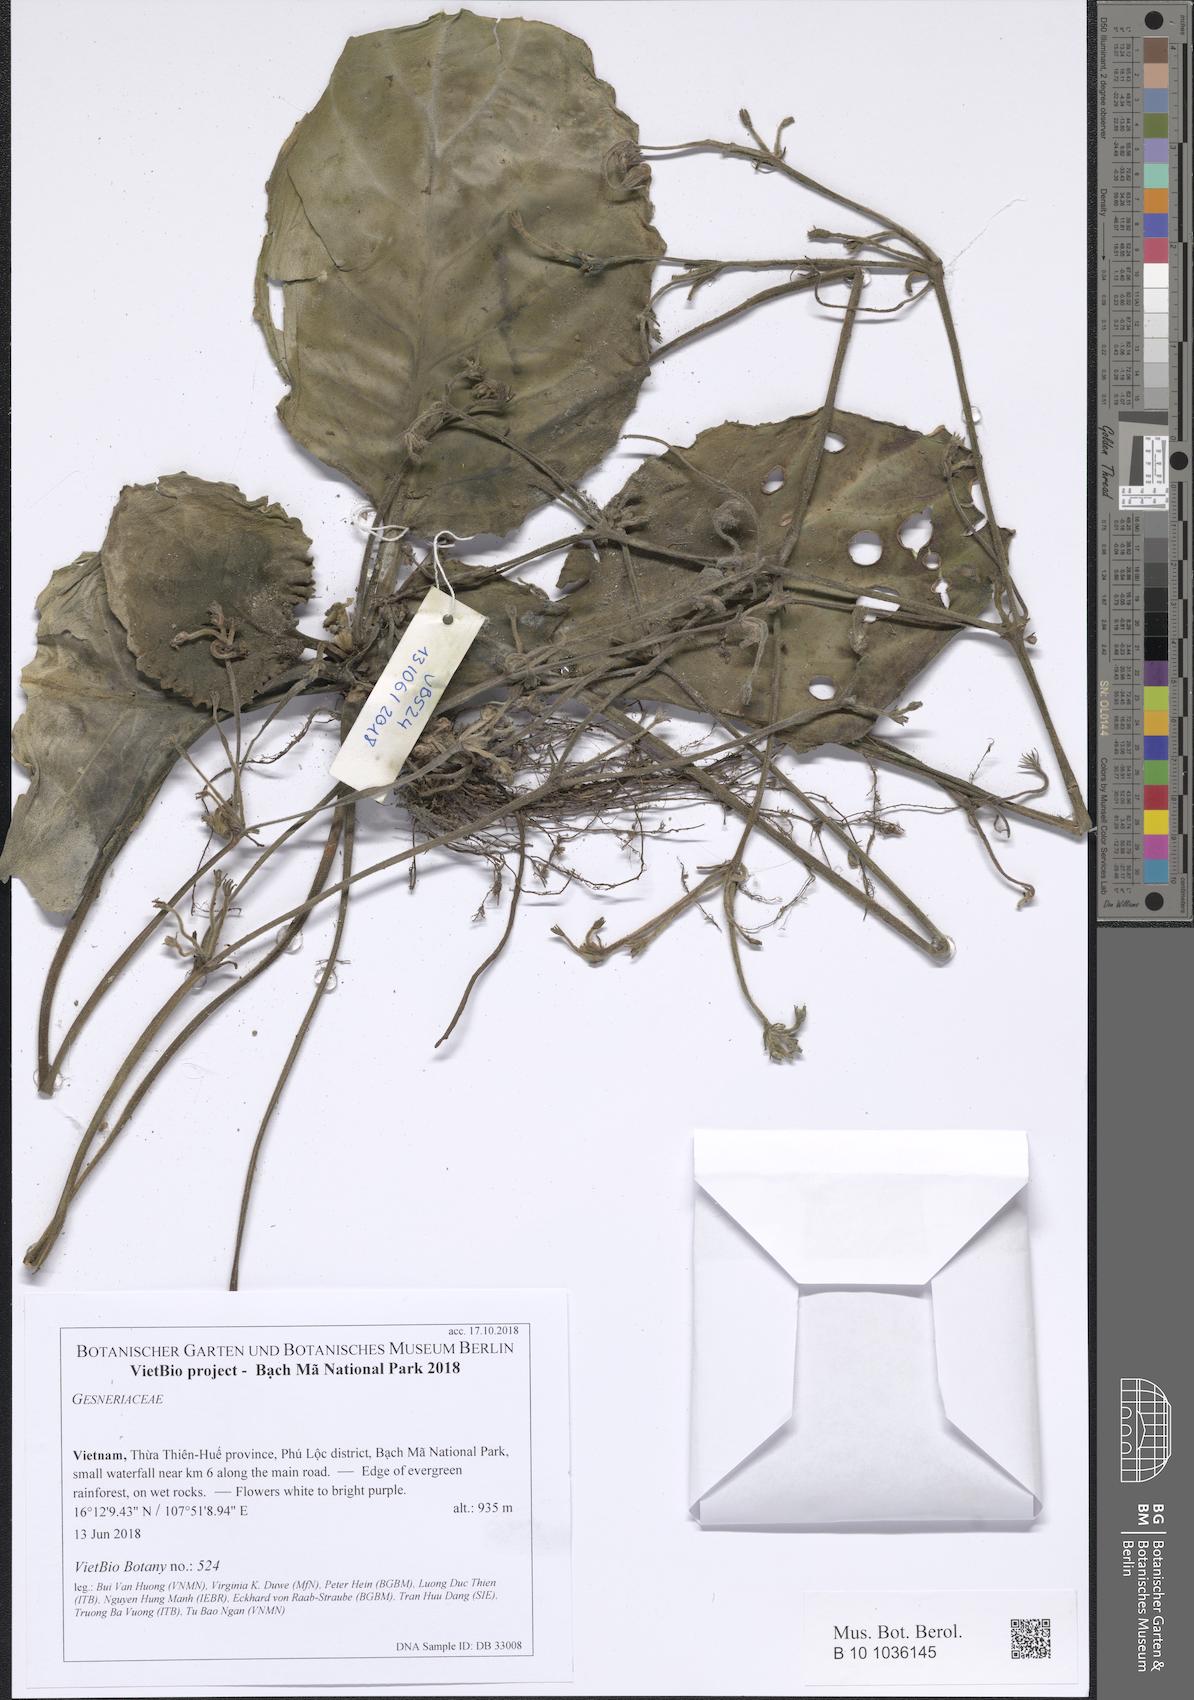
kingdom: Plantae
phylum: Tracheophyta
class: Magnoliopsida
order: Lamiales
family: Gesneriaceae
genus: Primulina
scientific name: Primulina swinglei
